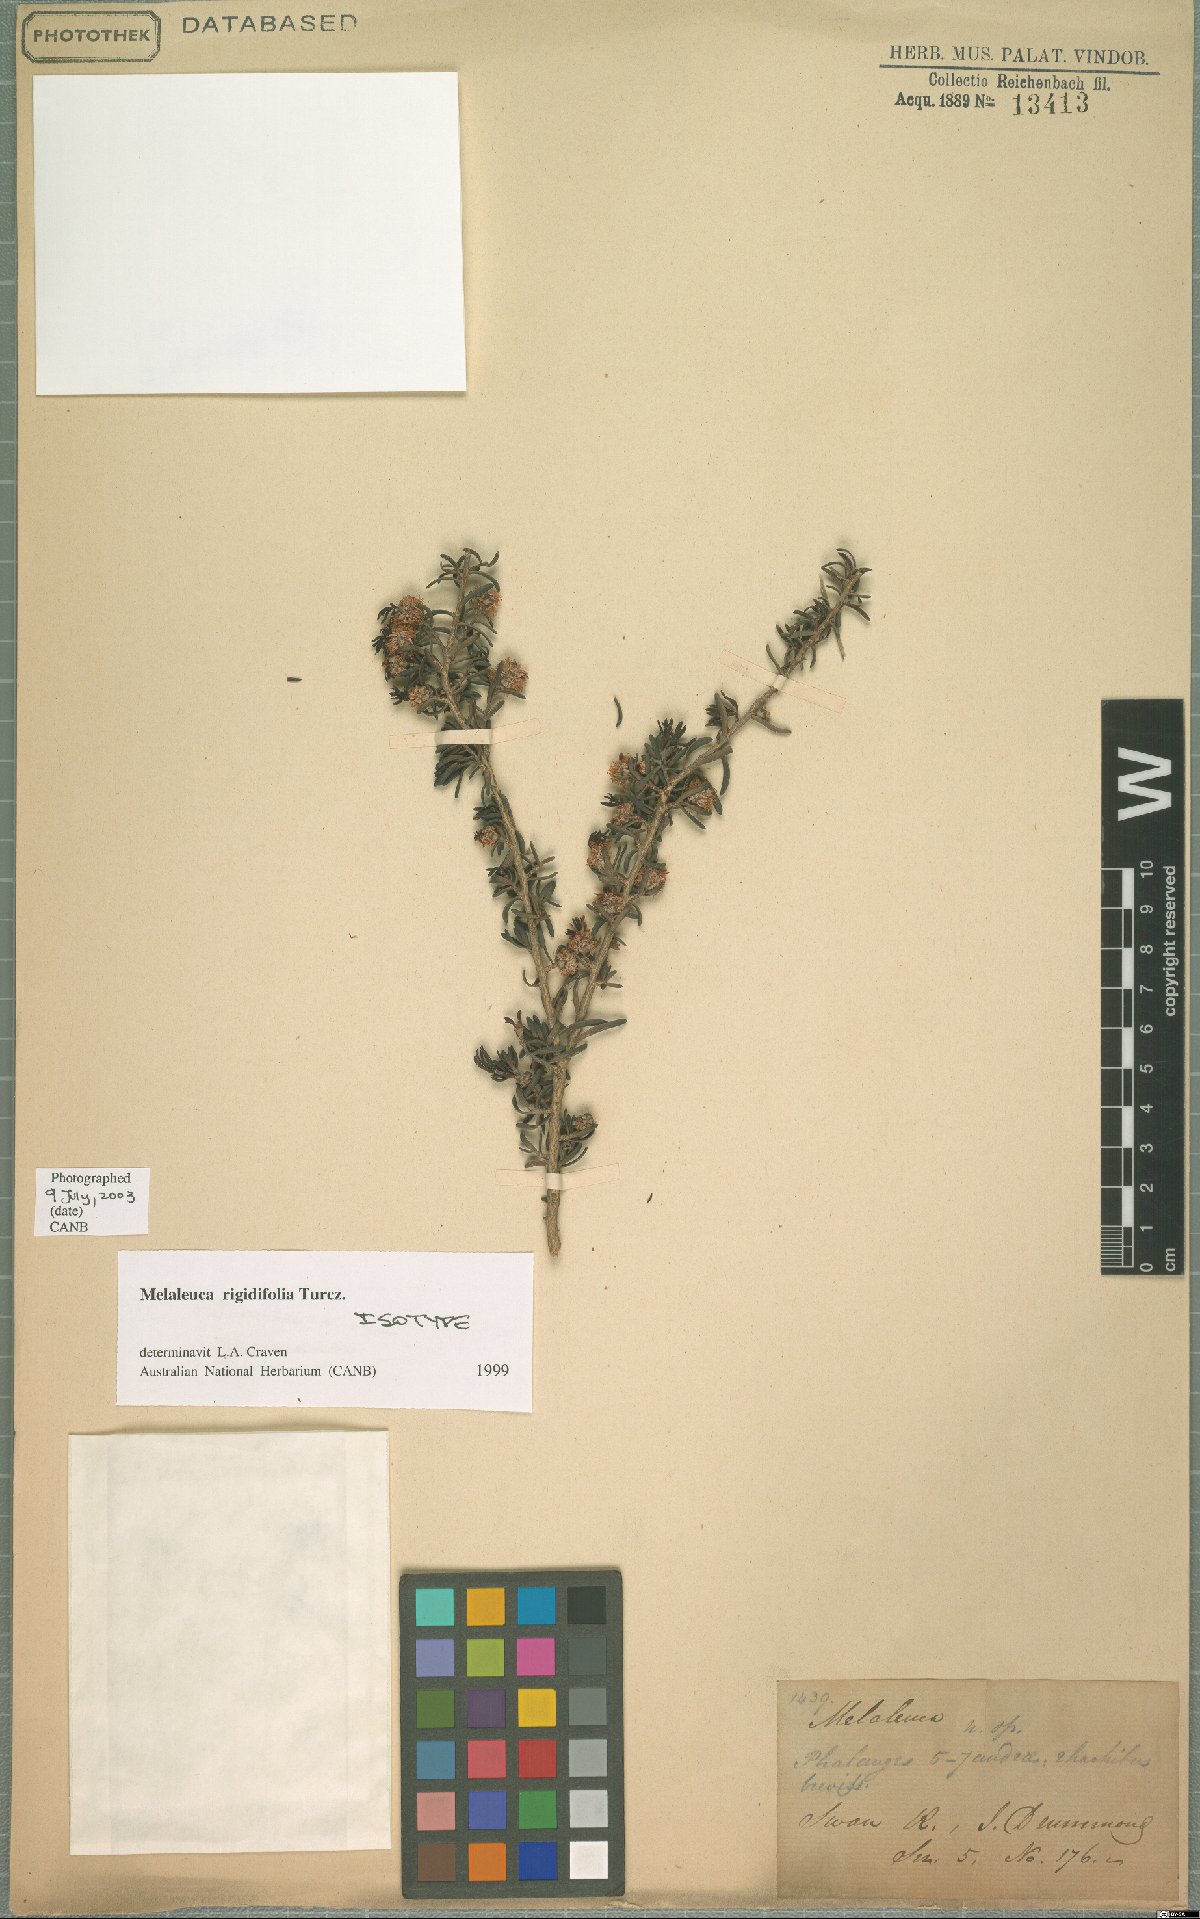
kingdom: Plantae
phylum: Tracheophyta
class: Magnoliopsida
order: Myrtales
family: Myrtaceae
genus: Melaleuca
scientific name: Melaleuca rigidifolia
